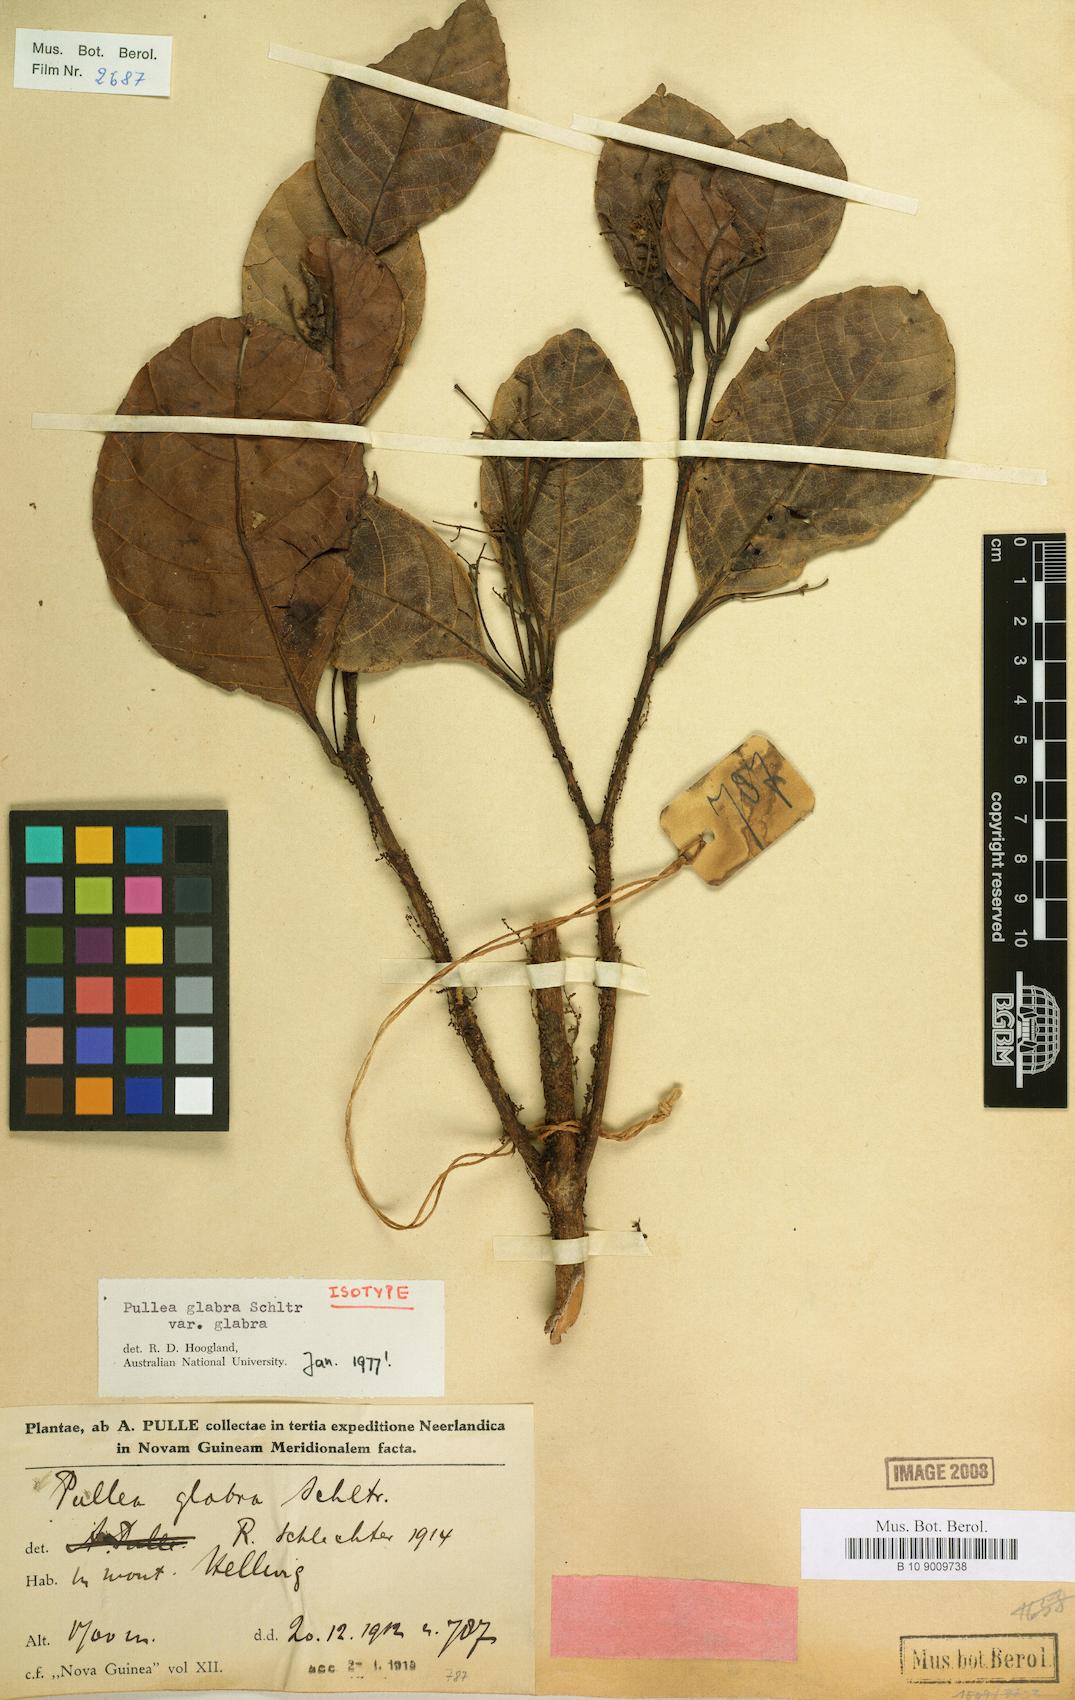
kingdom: Plantae
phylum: Tracheophyta
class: Magnoliopsida
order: Oxalidales
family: Cunoniaceae
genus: Pullea
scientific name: Pullea glabra
